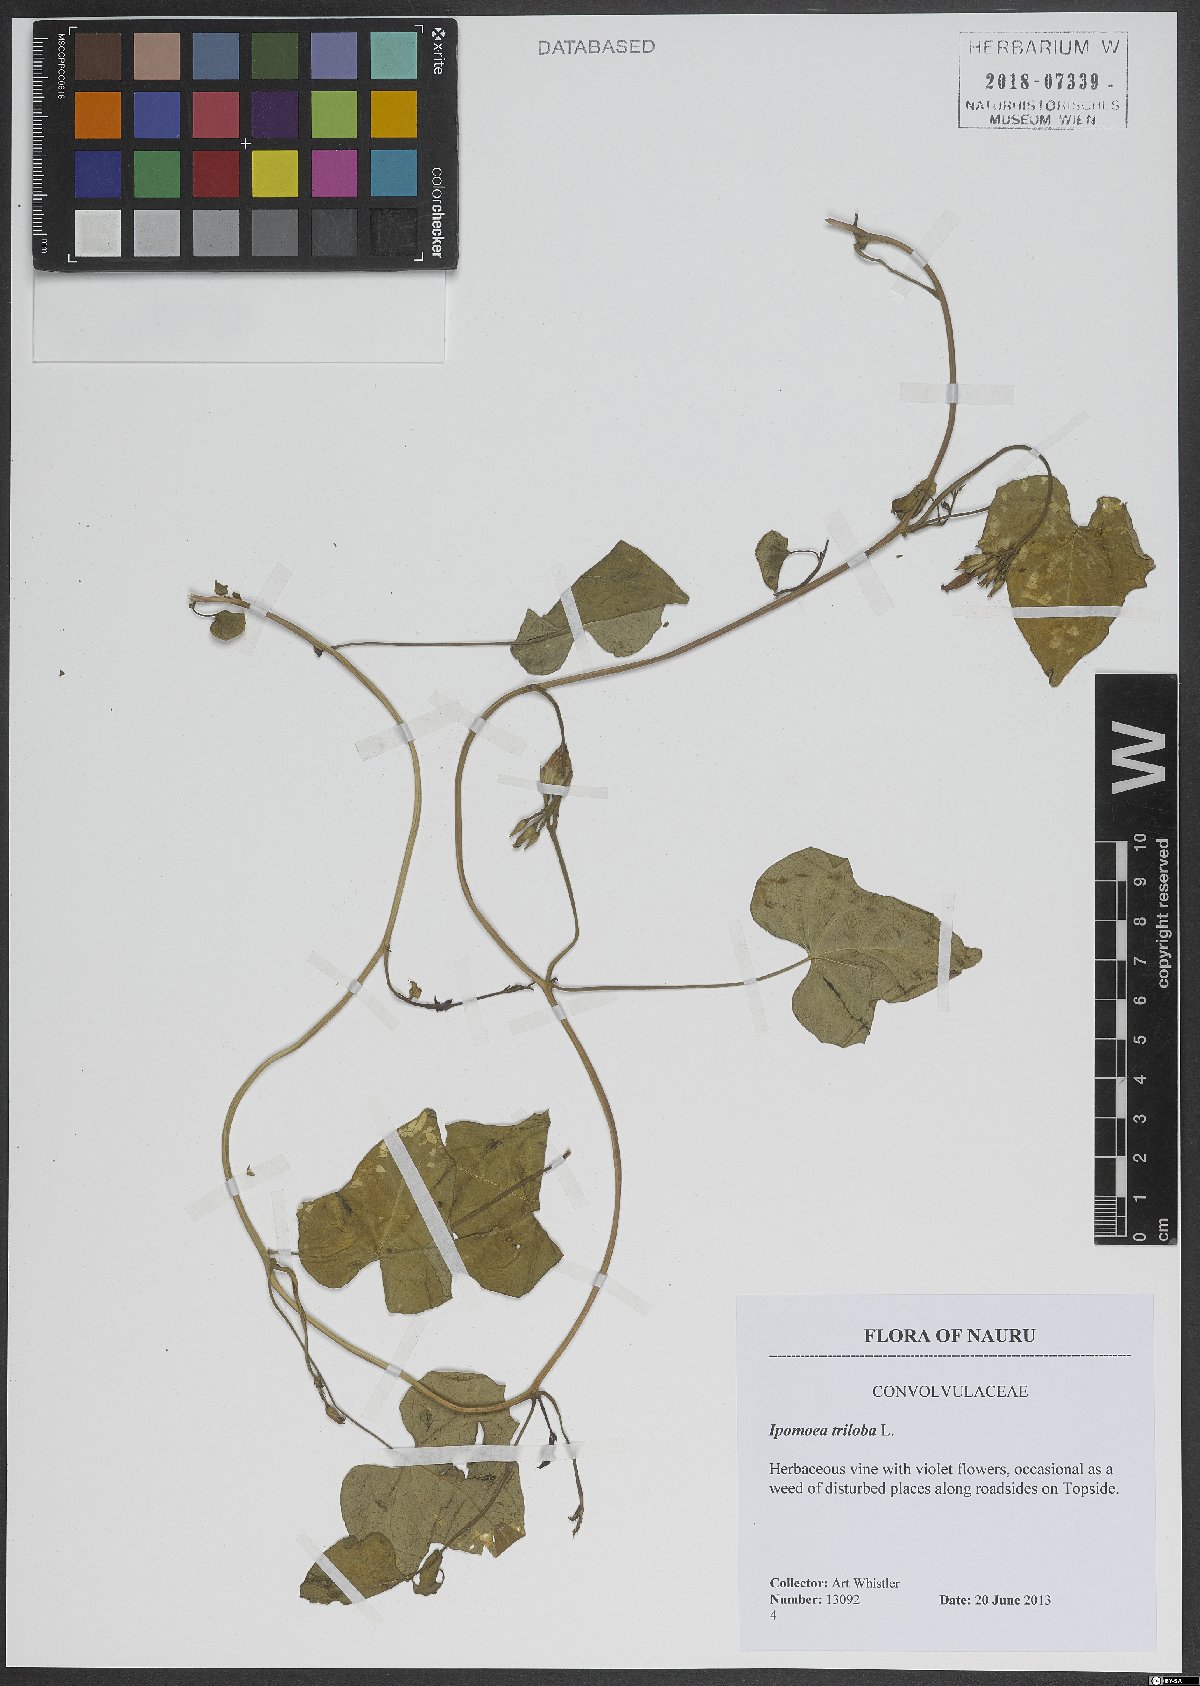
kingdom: Plantae
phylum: Tracheophyta
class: Magnoliopsida
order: Solanales
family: Convolvulaceae
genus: Ipomoea
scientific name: Ipomoea triloba
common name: Little-bell
